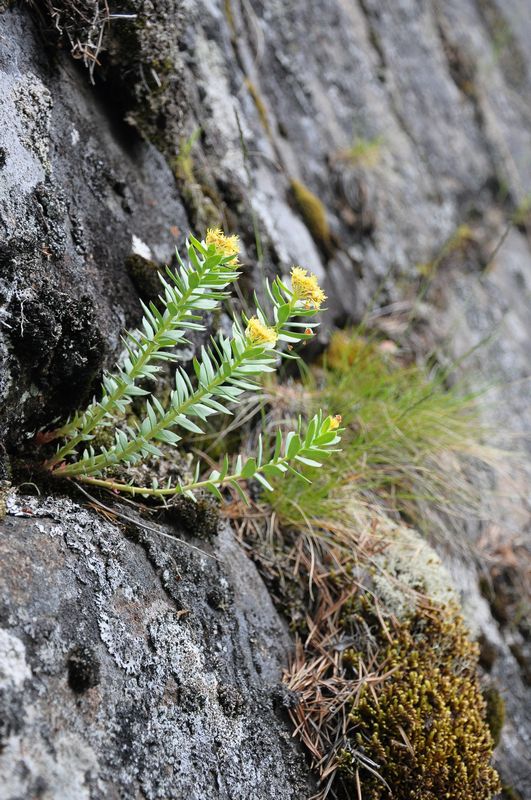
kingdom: Plantae
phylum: Tracheophyta
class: Magnoliopsida
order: Saxifragales
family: Crassulaceae
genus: Rhodiola
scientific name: Rhodiola rosea
